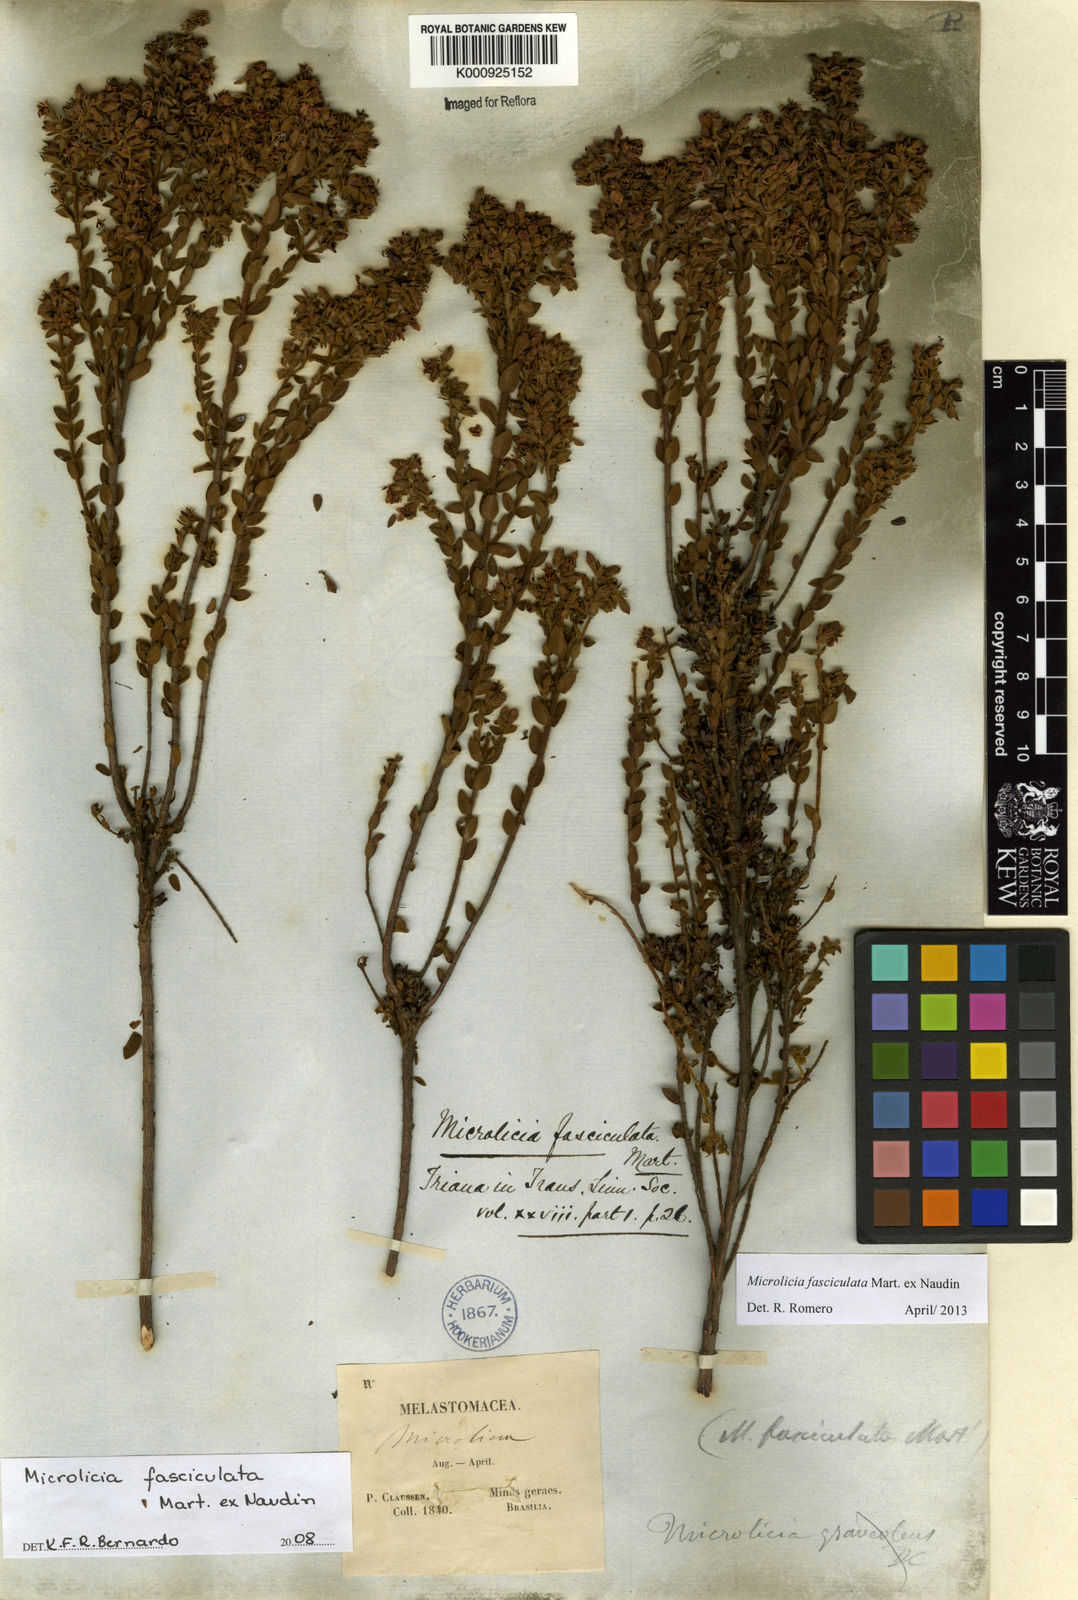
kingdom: Plantae
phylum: Tracheophyta
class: Magnoliopsida
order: Myrtales
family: Melastomataceae
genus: Microlicia
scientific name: Microlicia fasciculata
